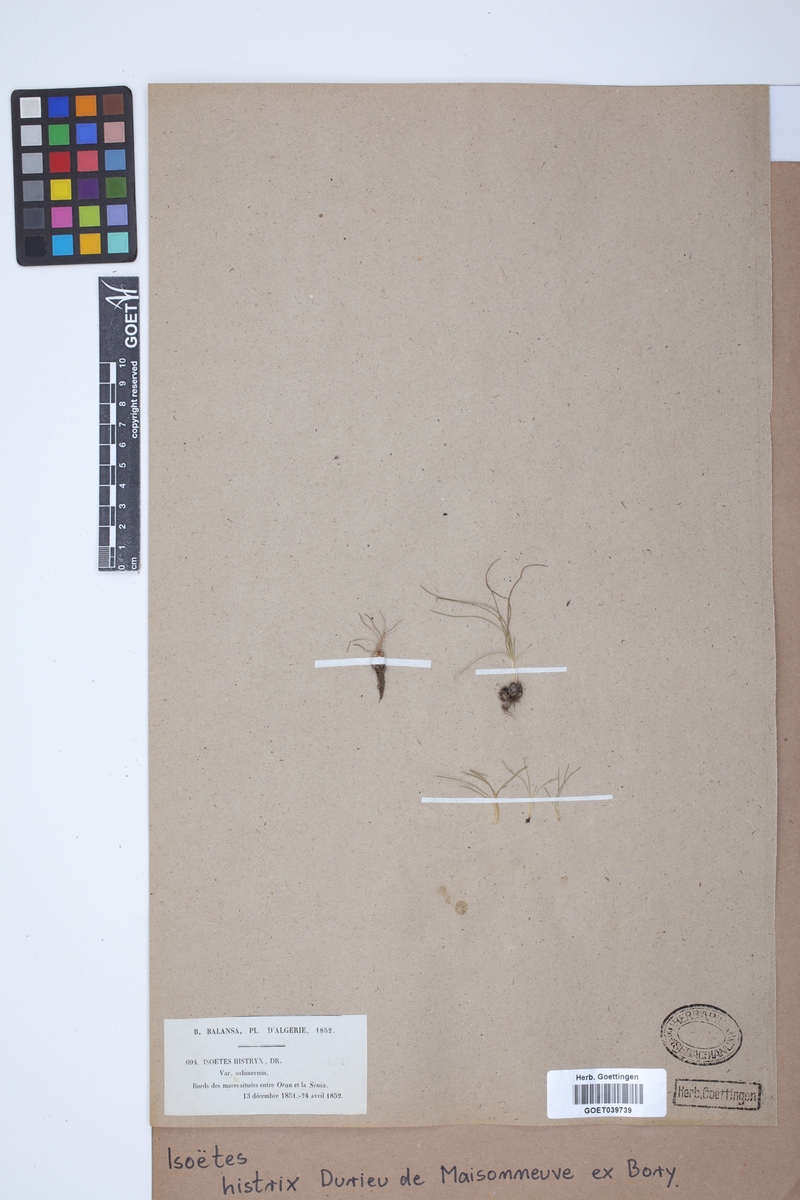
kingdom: Plantae
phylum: Tracheophyta
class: Lycopodiopsida
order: Isoetales
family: Isoetaceae
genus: Isoetes
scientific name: Isoetes histrix
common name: Land quillwort
